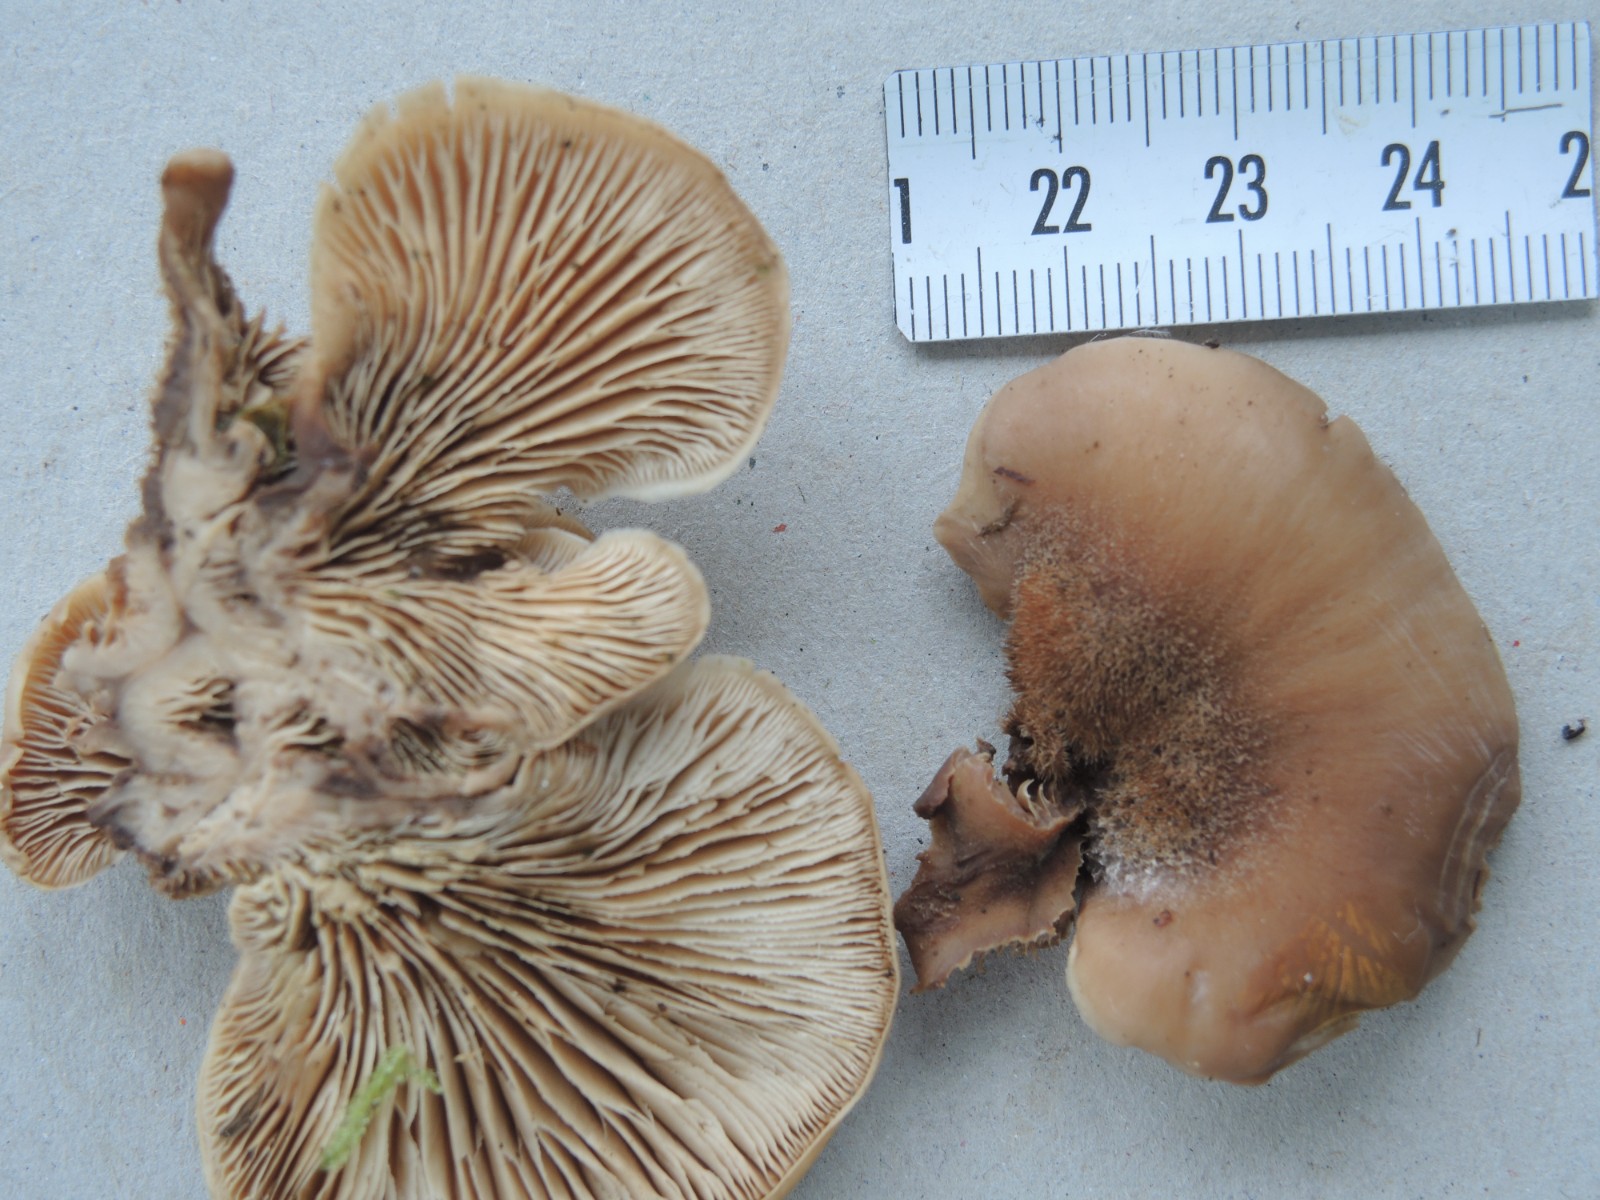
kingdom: Fungi
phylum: Basidiomycota
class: Agaricomycetes
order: Russulales
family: Auriscalpiaceae
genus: Lentinellus
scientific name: Lentinellus ursinus
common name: børstehåret savbladhat
